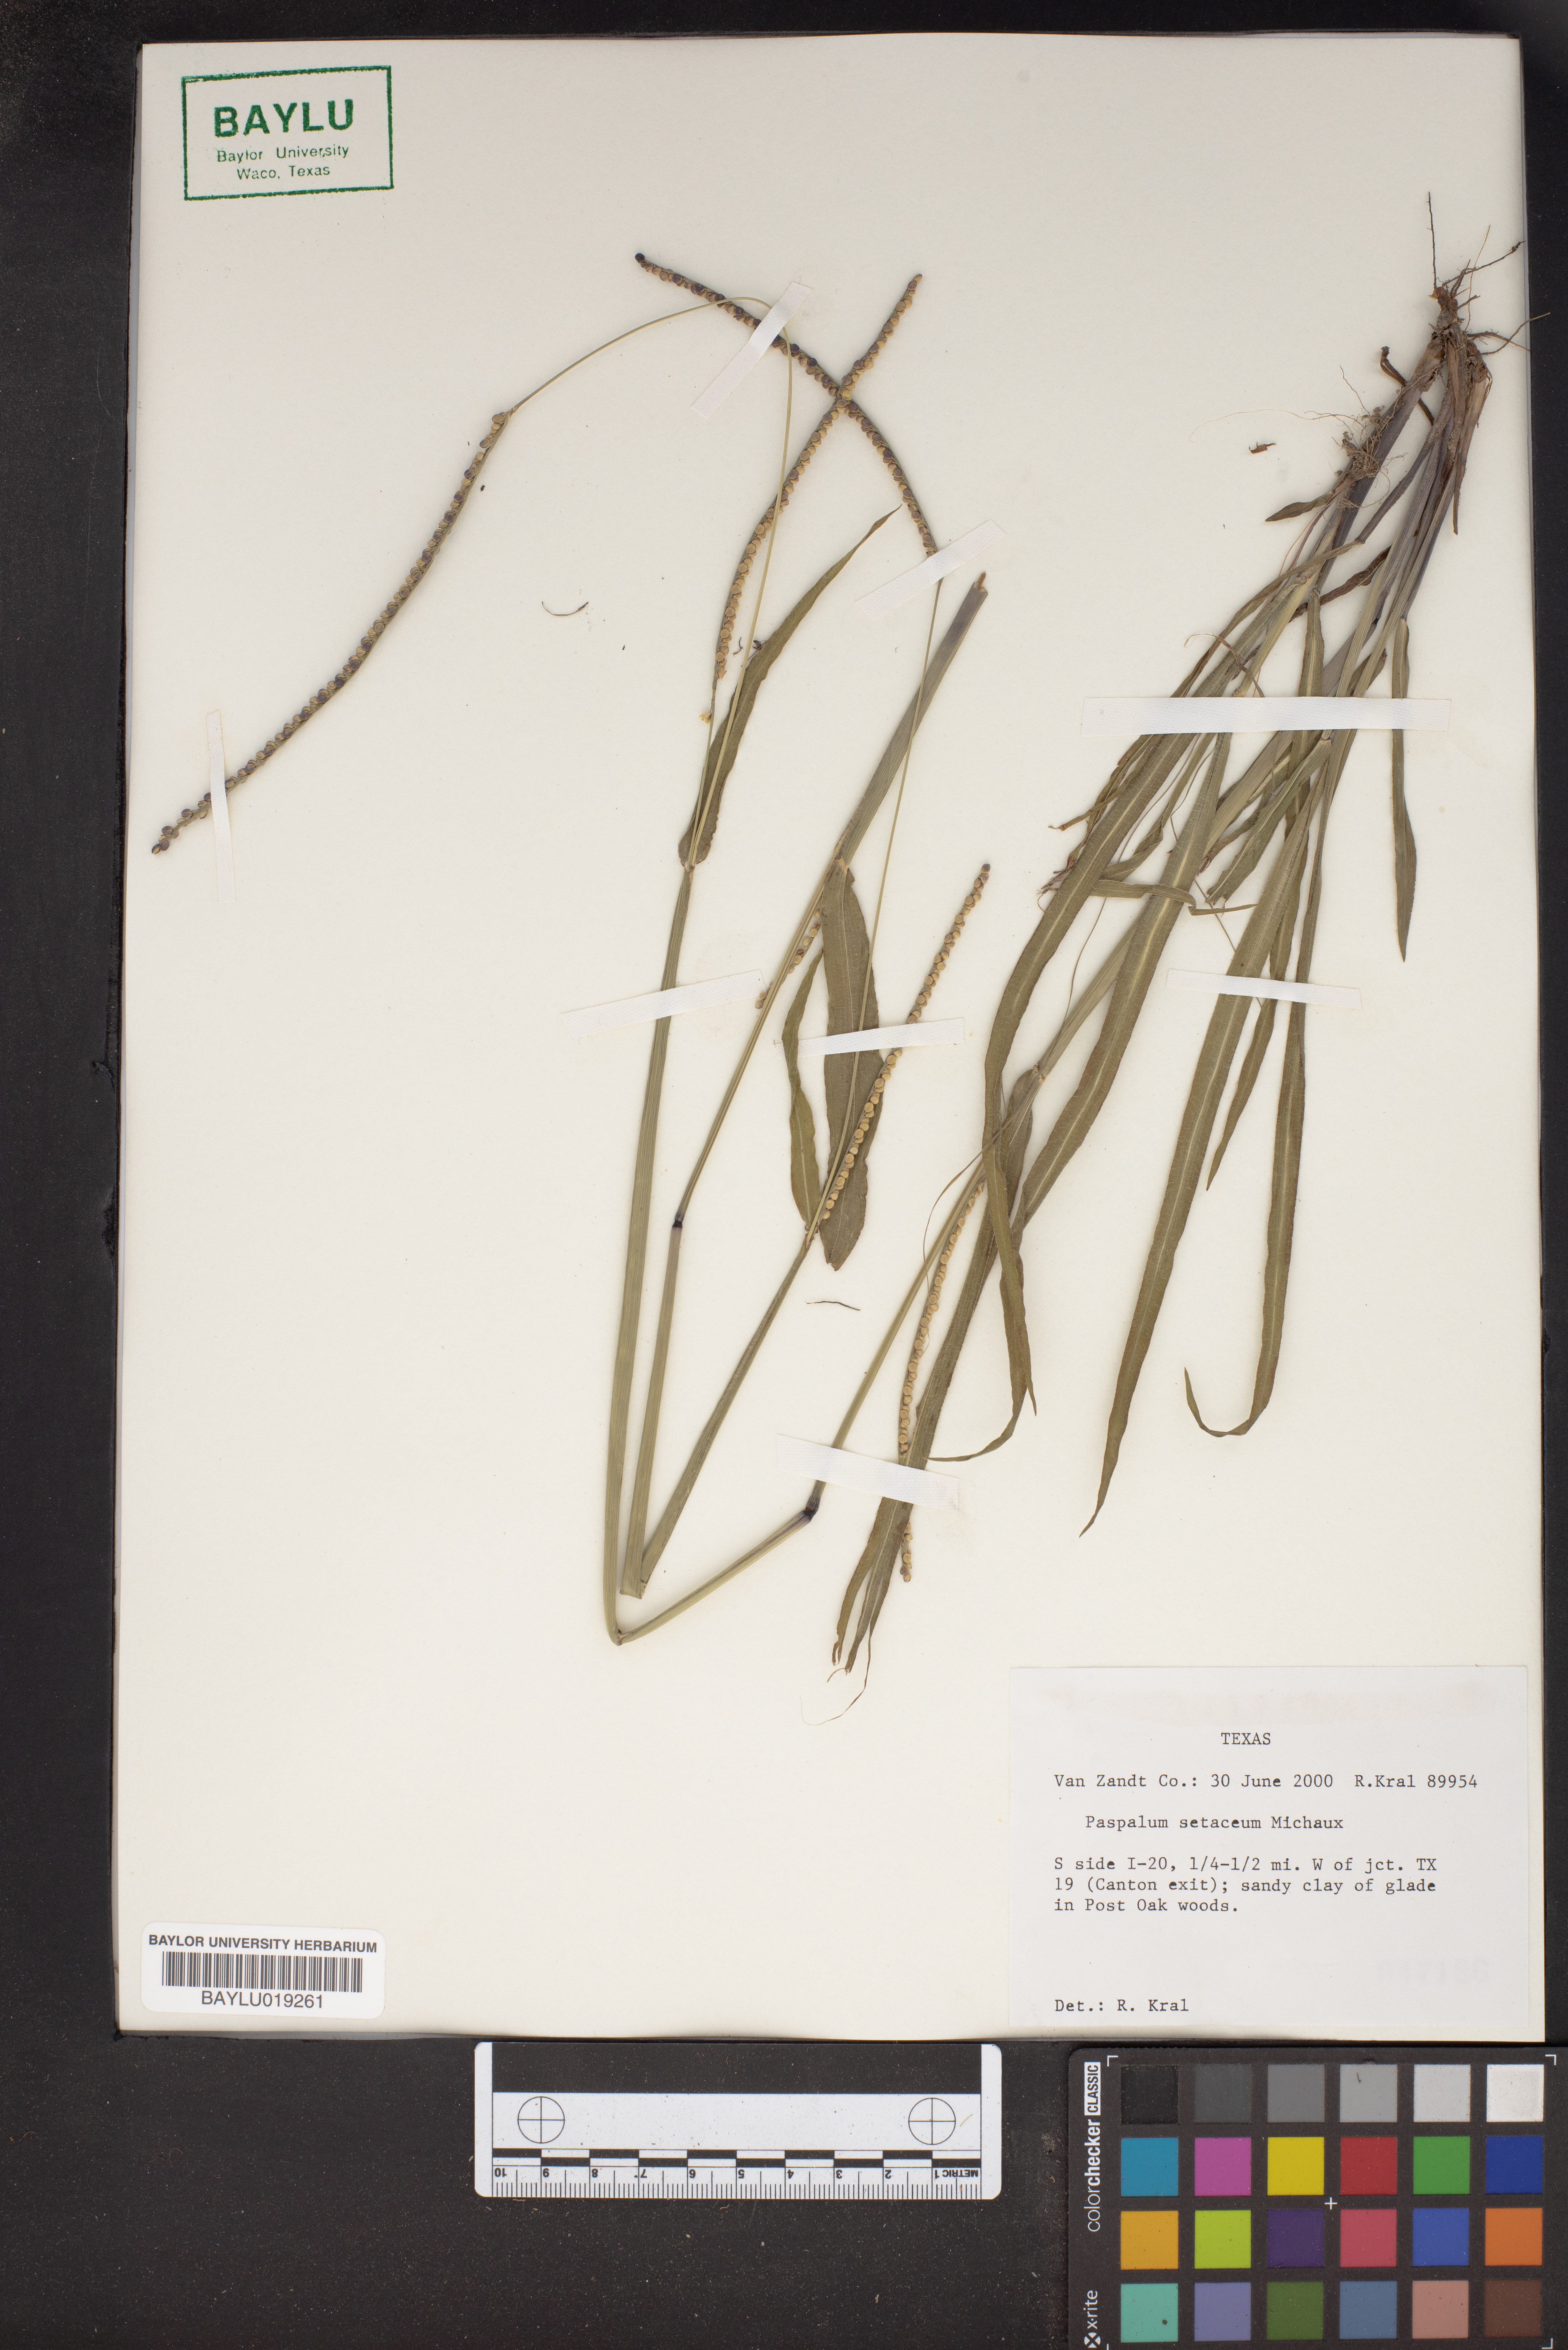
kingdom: Plantae
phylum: Tracheophyta
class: Liliopsida
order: Poales
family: Poaceae
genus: Paspalum
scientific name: Paspalum setaceum
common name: Slender paspalum
